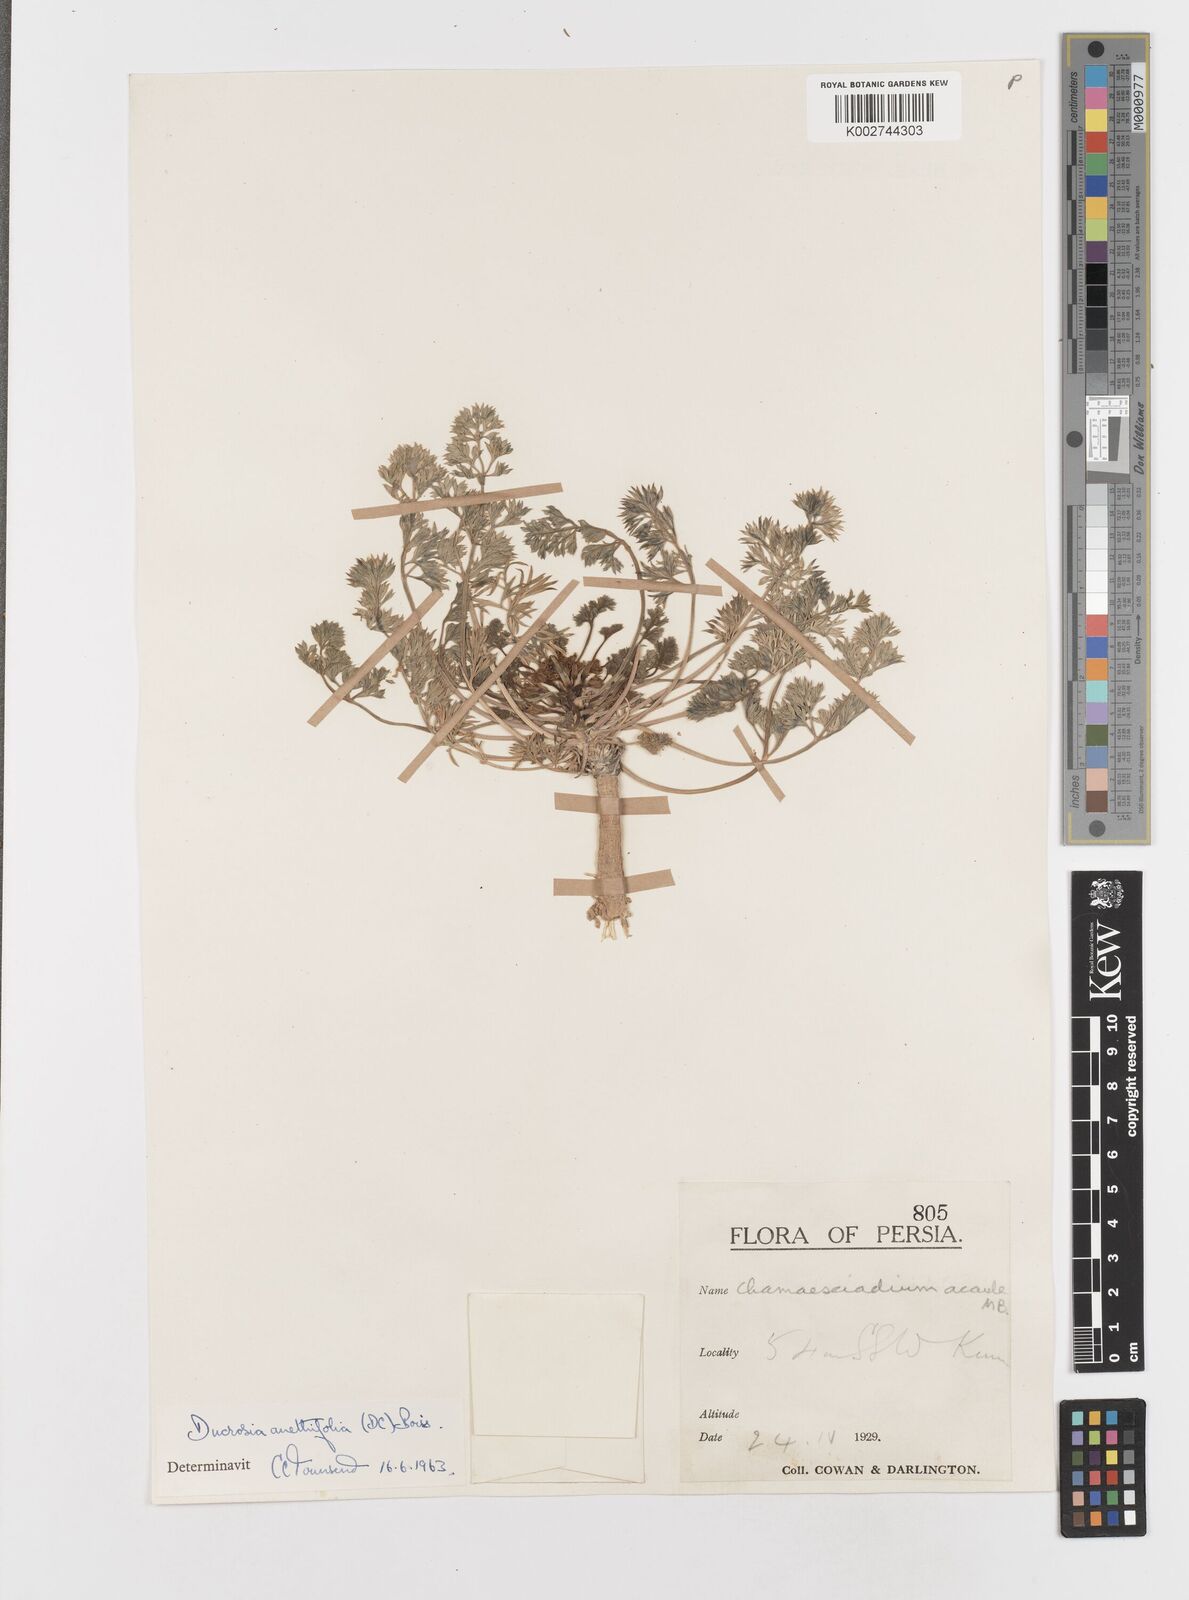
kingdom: Plantae
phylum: Tracheophyta
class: Magnoliopsida
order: Apiales
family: Apiaceae
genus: Ducrosia
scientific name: Ducrosia anethifolia
